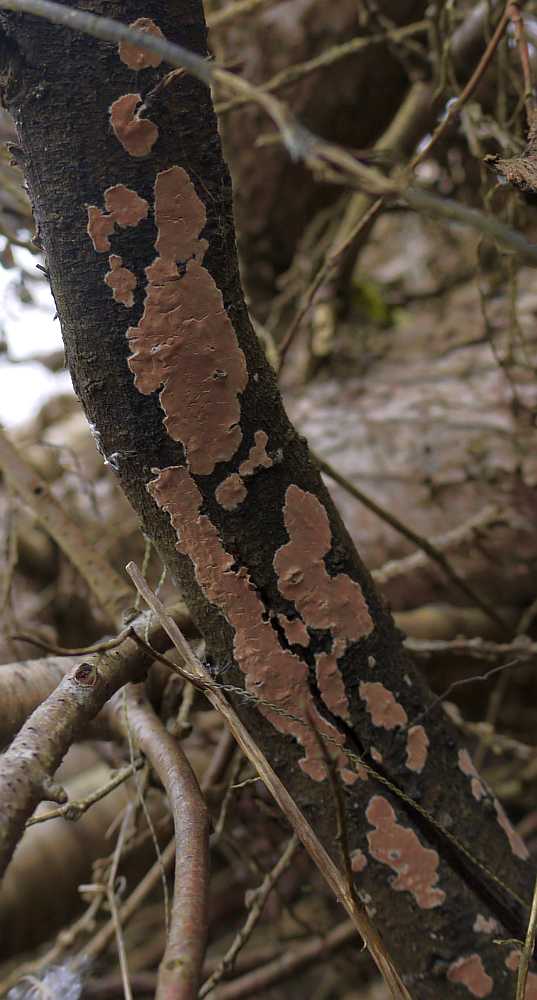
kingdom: Fungi
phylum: Basidiomycota
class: Agaricomycetes
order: Agaricales
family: Physalacriaceae
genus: Cylindrobasidium
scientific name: Cylindrobasidium evolvens
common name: sprækkehinde
